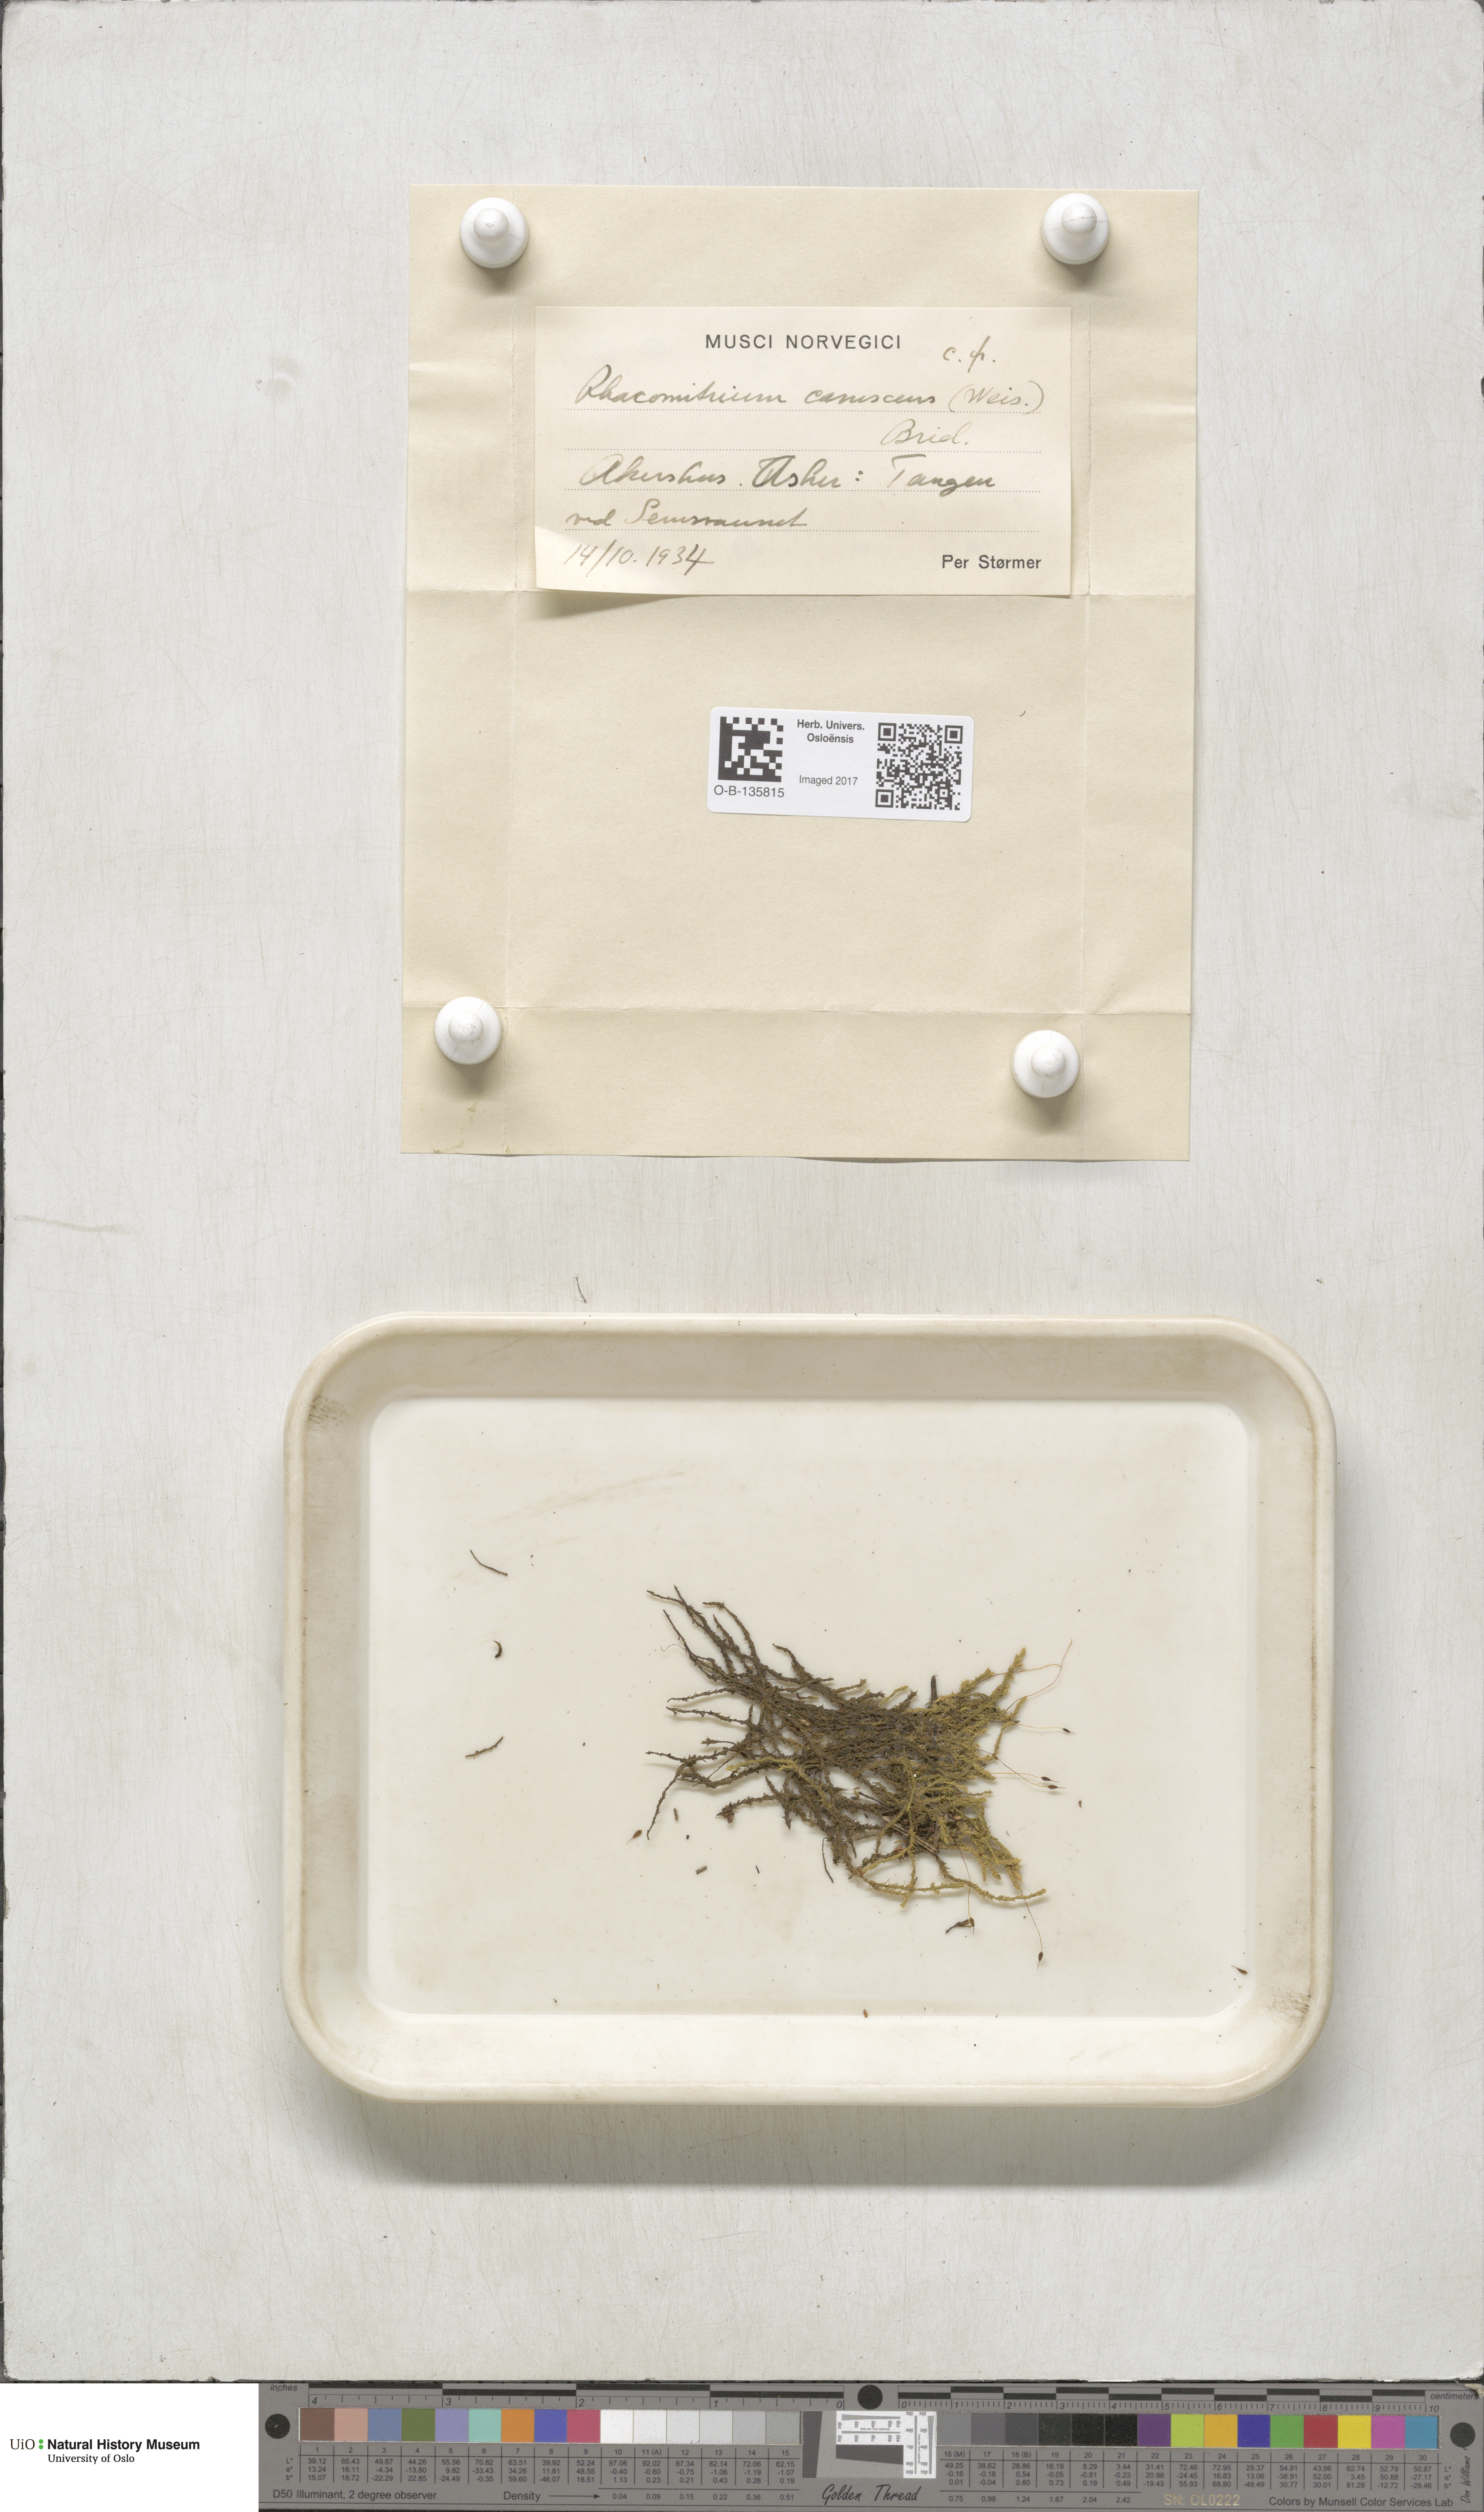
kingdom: Plantae
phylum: Bryophyta
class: Bryopsida
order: Grimmiales
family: Grimmiaceae
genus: Niphotrichum
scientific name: Niphotrichum canescens
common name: Hoary fringe-moss
